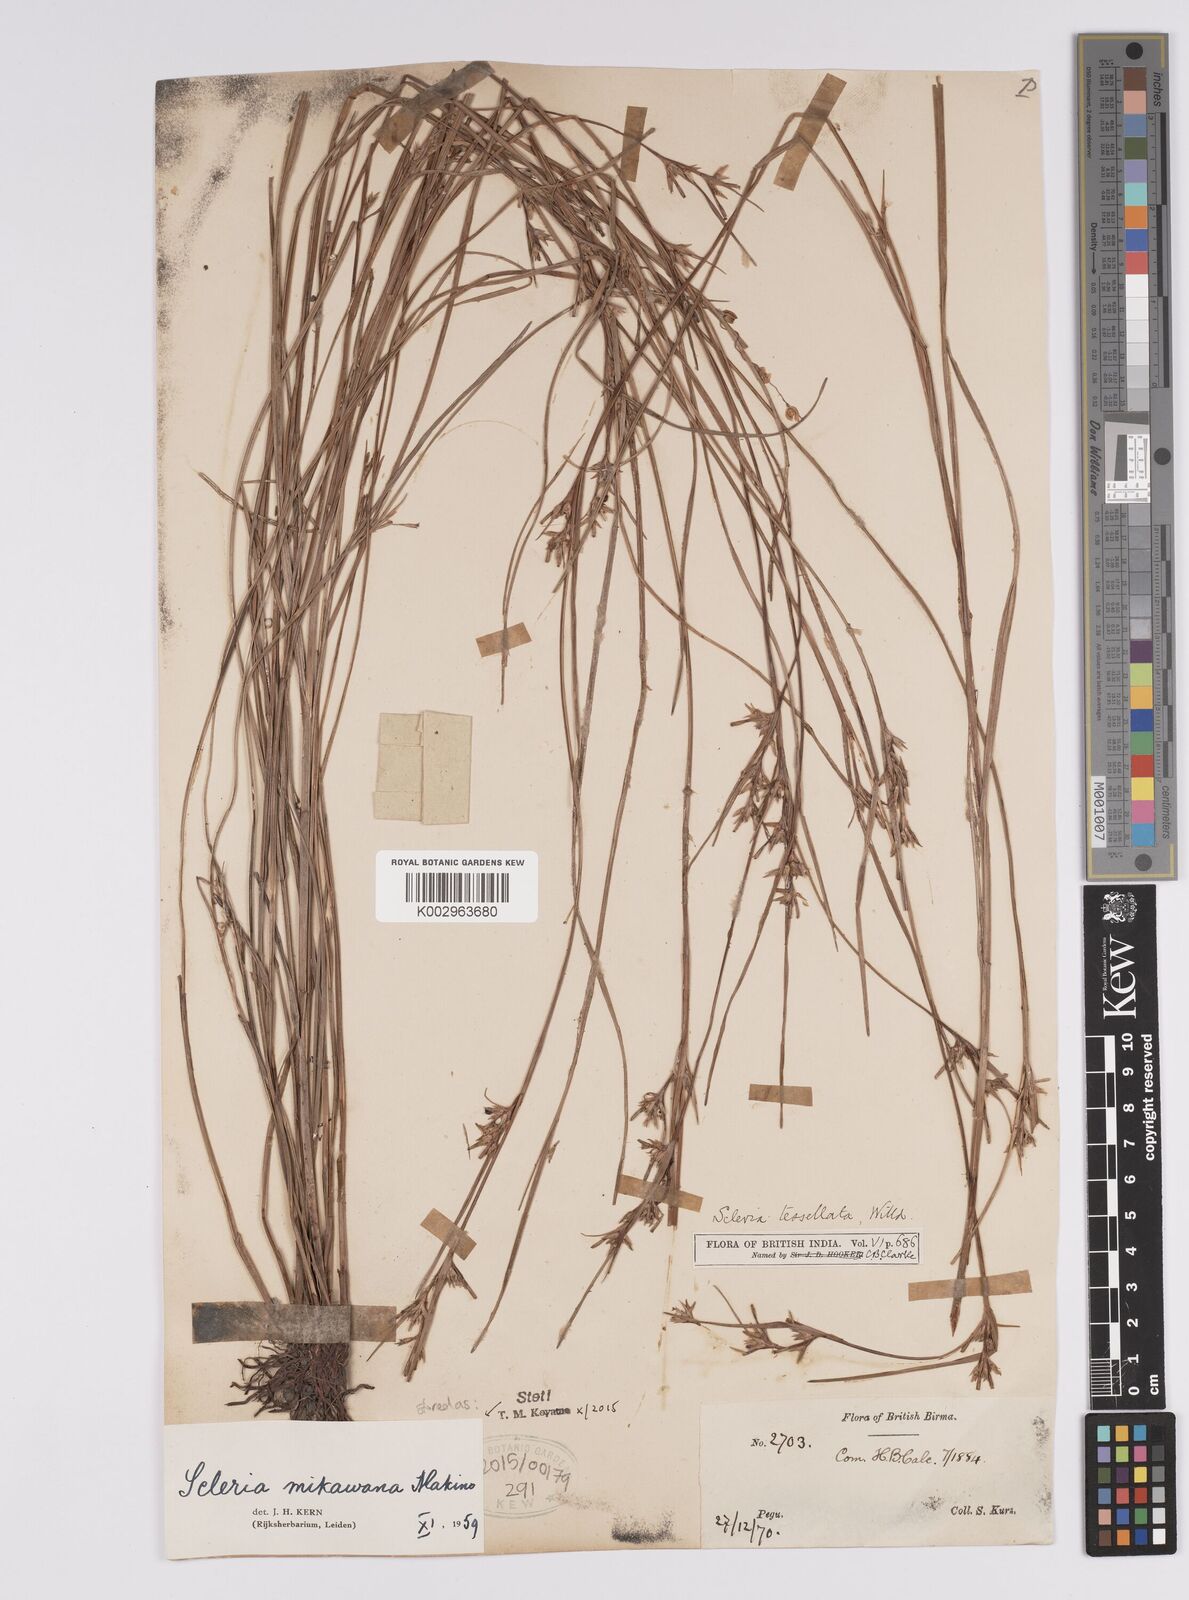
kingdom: Plantae
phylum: Tracheophyta
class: Liliopsida
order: Poales
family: Cyperaceae
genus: Scleria
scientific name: Scleria mikawana
